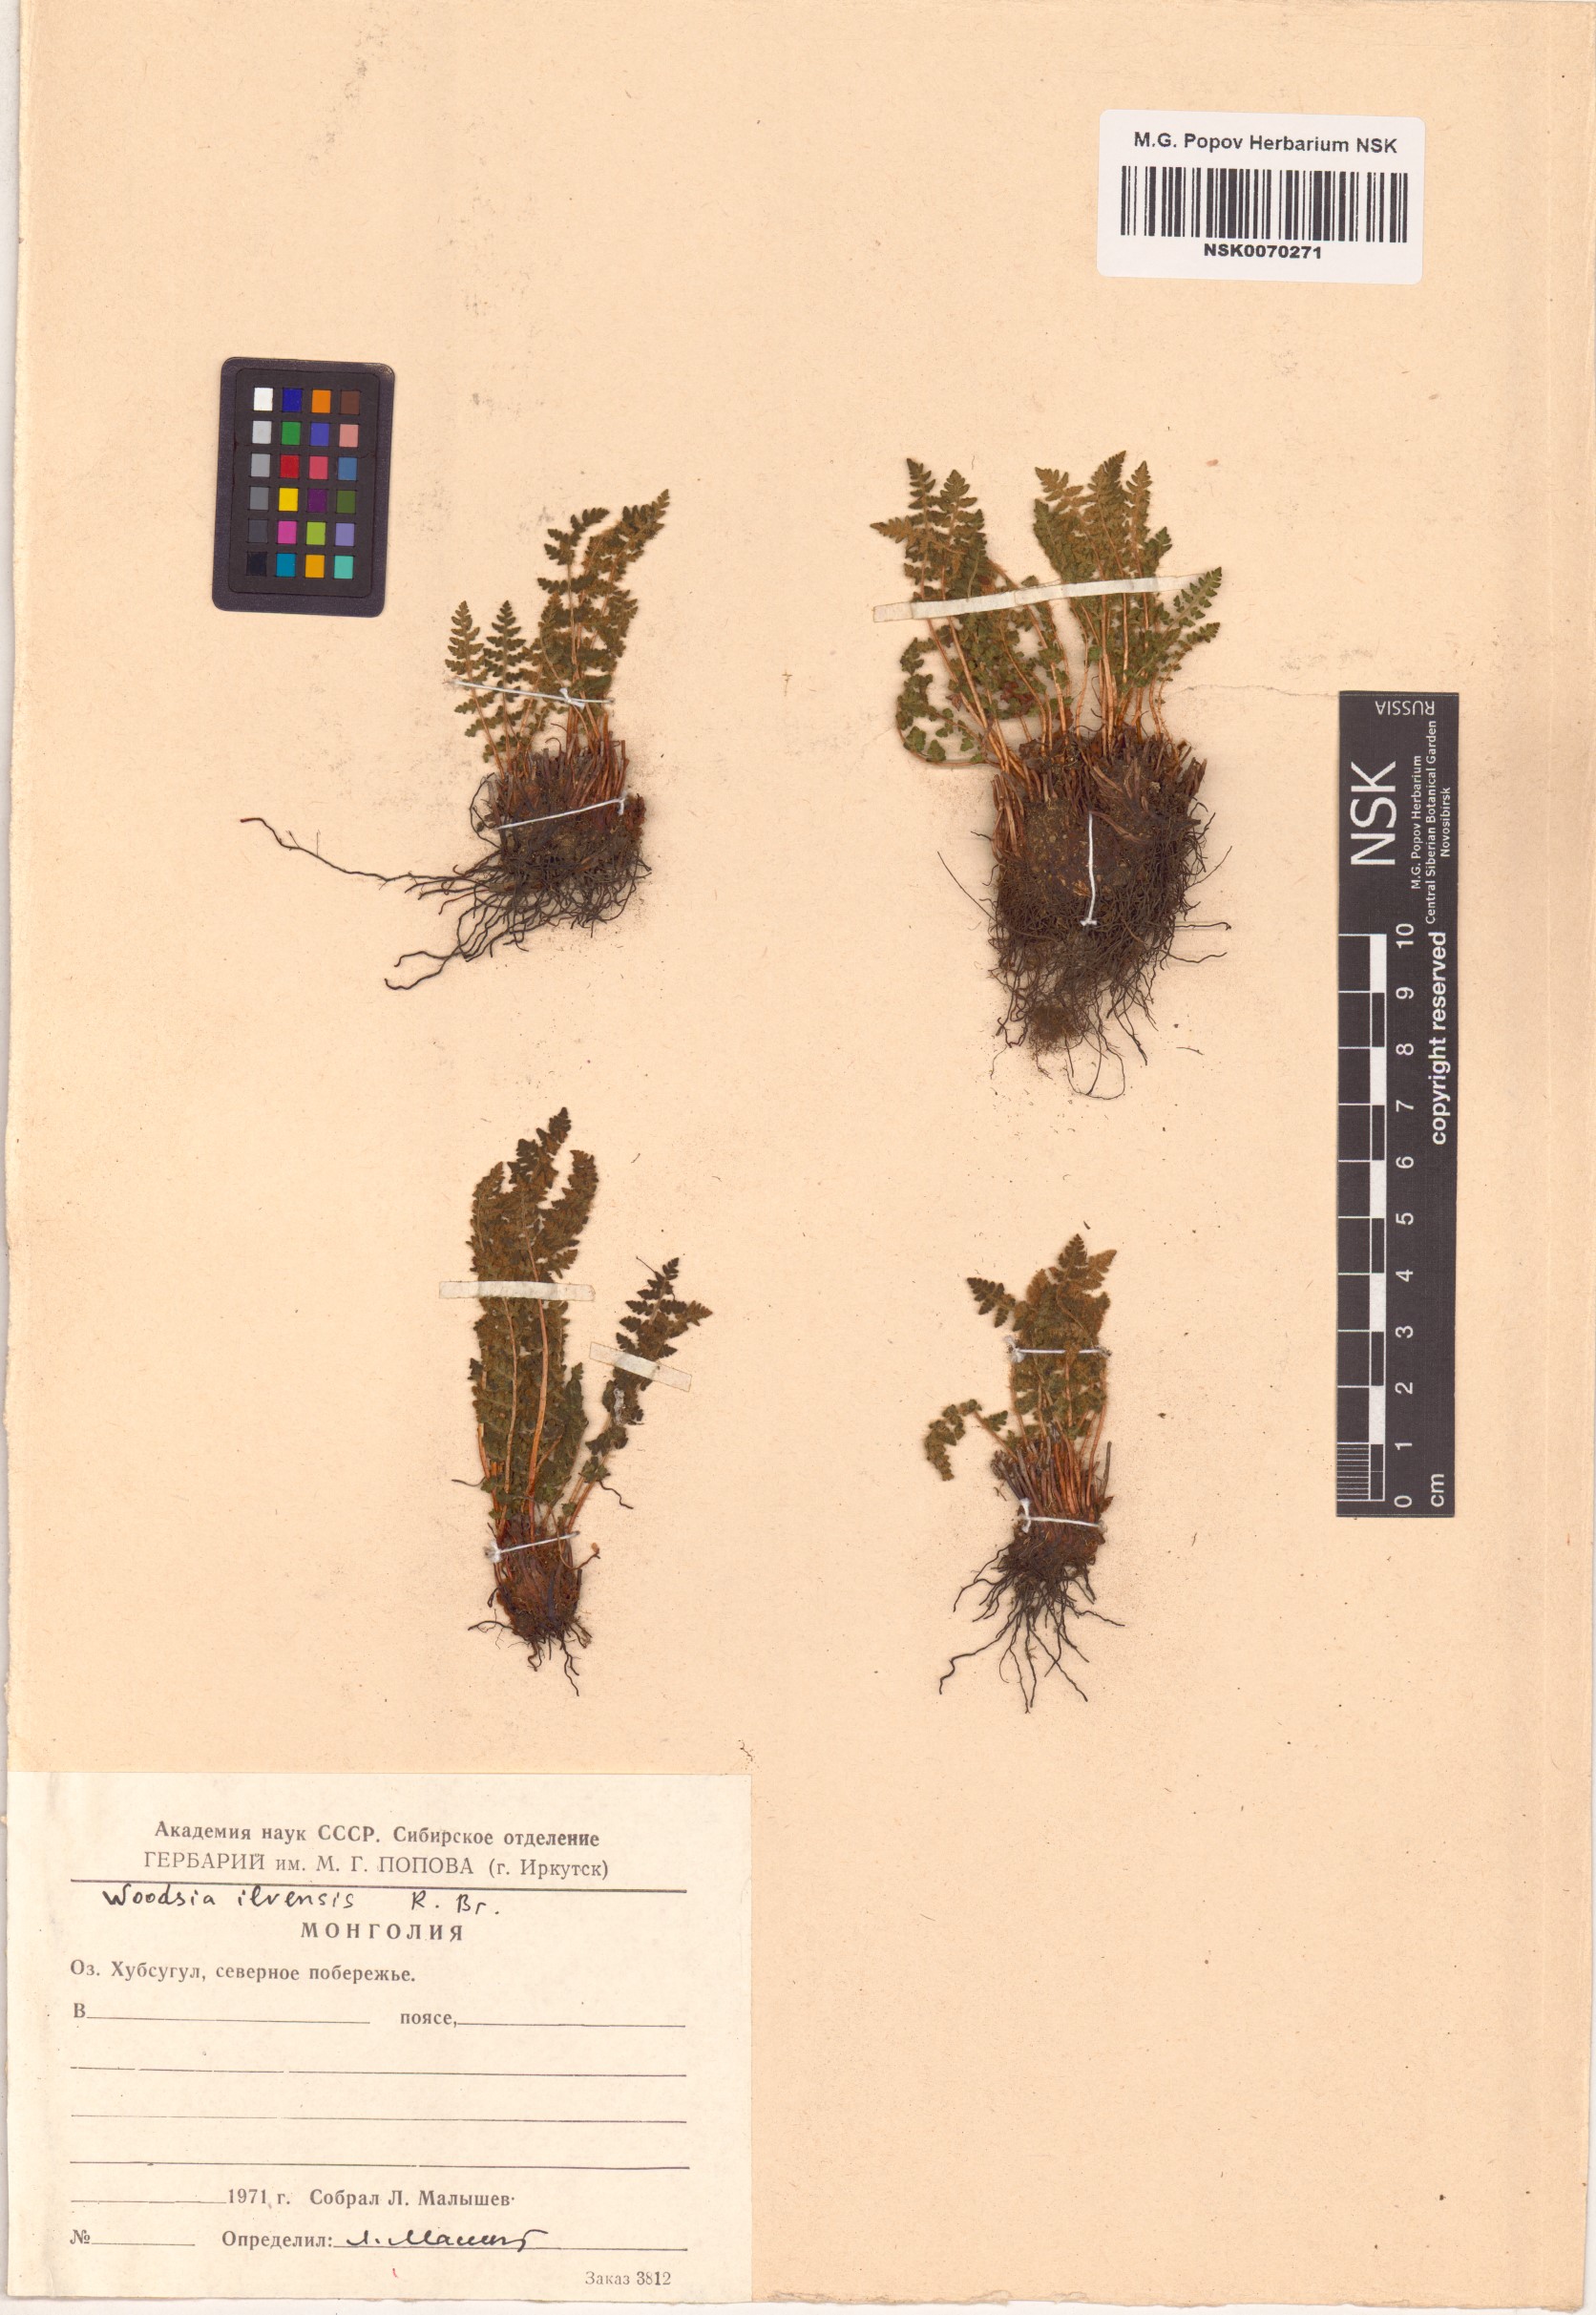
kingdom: Plantae
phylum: Tracheophyta
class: Polypodiopsida
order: Polypodiales
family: Woodsiaceae
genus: Woodsia
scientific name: Woodsia ilvensis
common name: Fragrant woodsia
